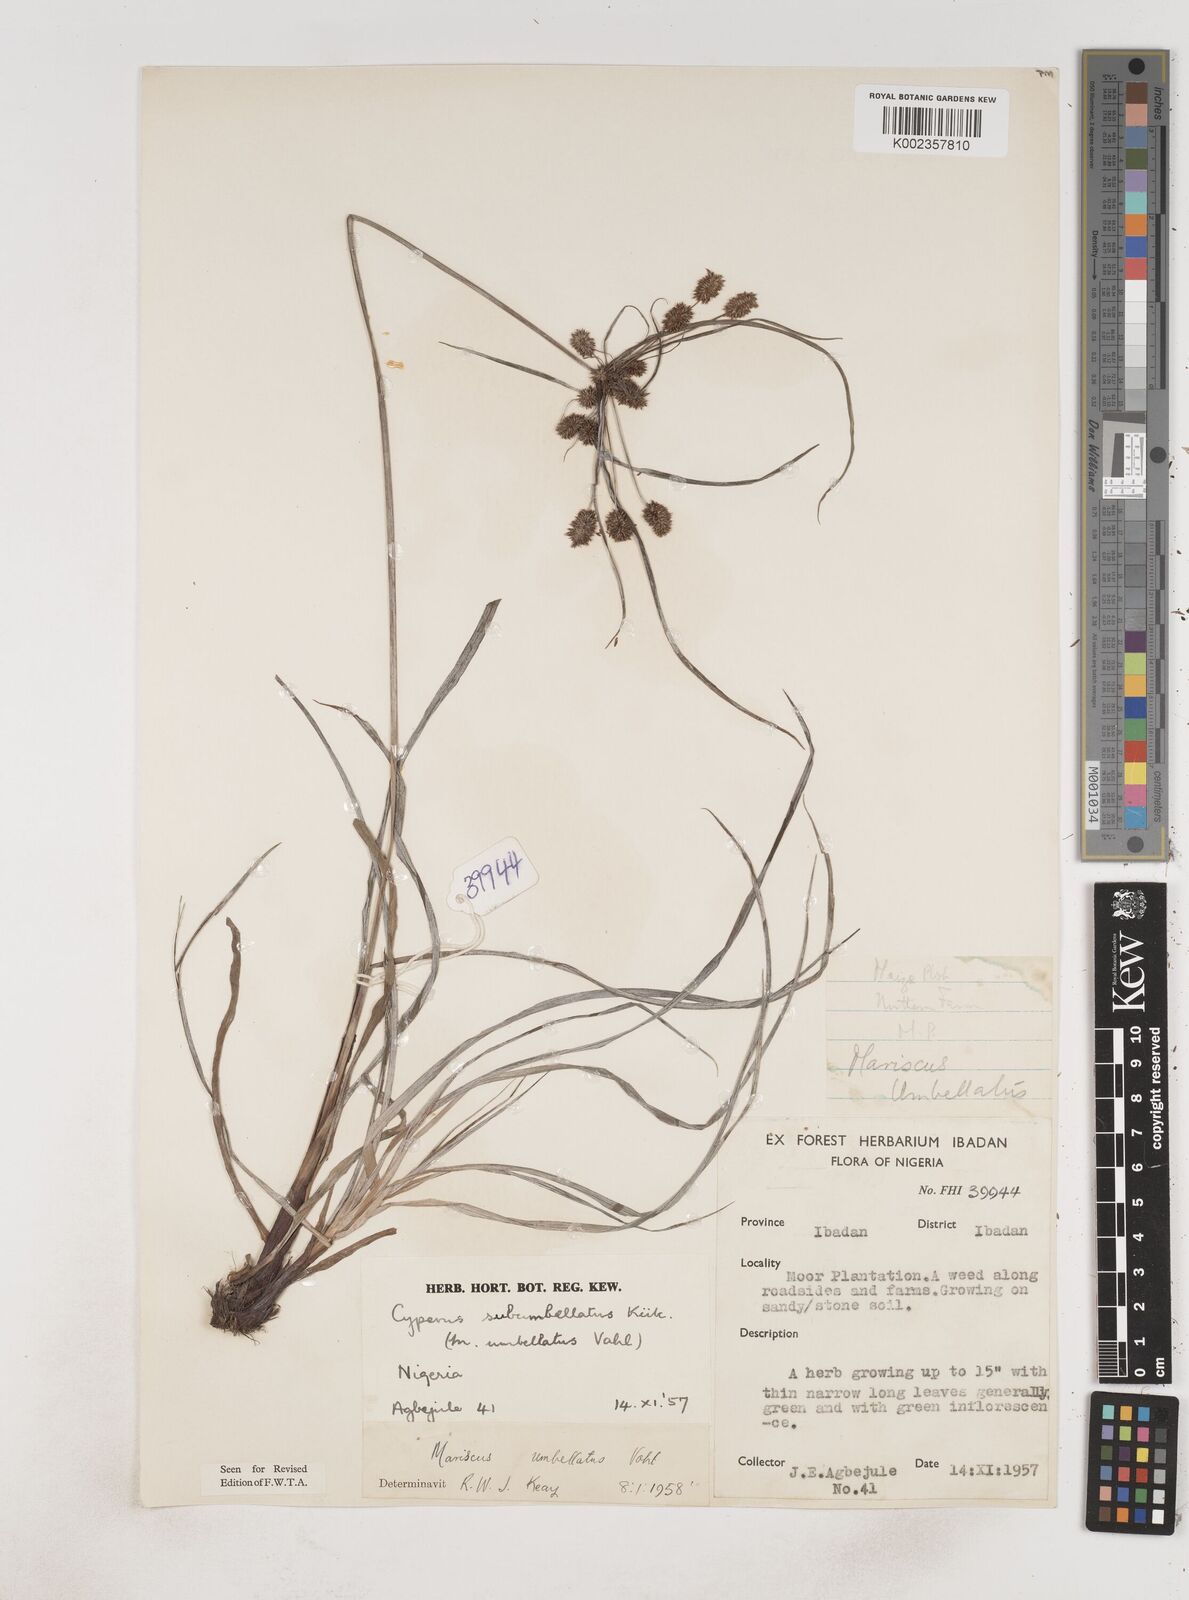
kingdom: Plantae
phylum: Tracheophyta
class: Liliopsida
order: Poales
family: Cyperaceae
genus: Cyperus
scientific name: Cyperus sublimis
